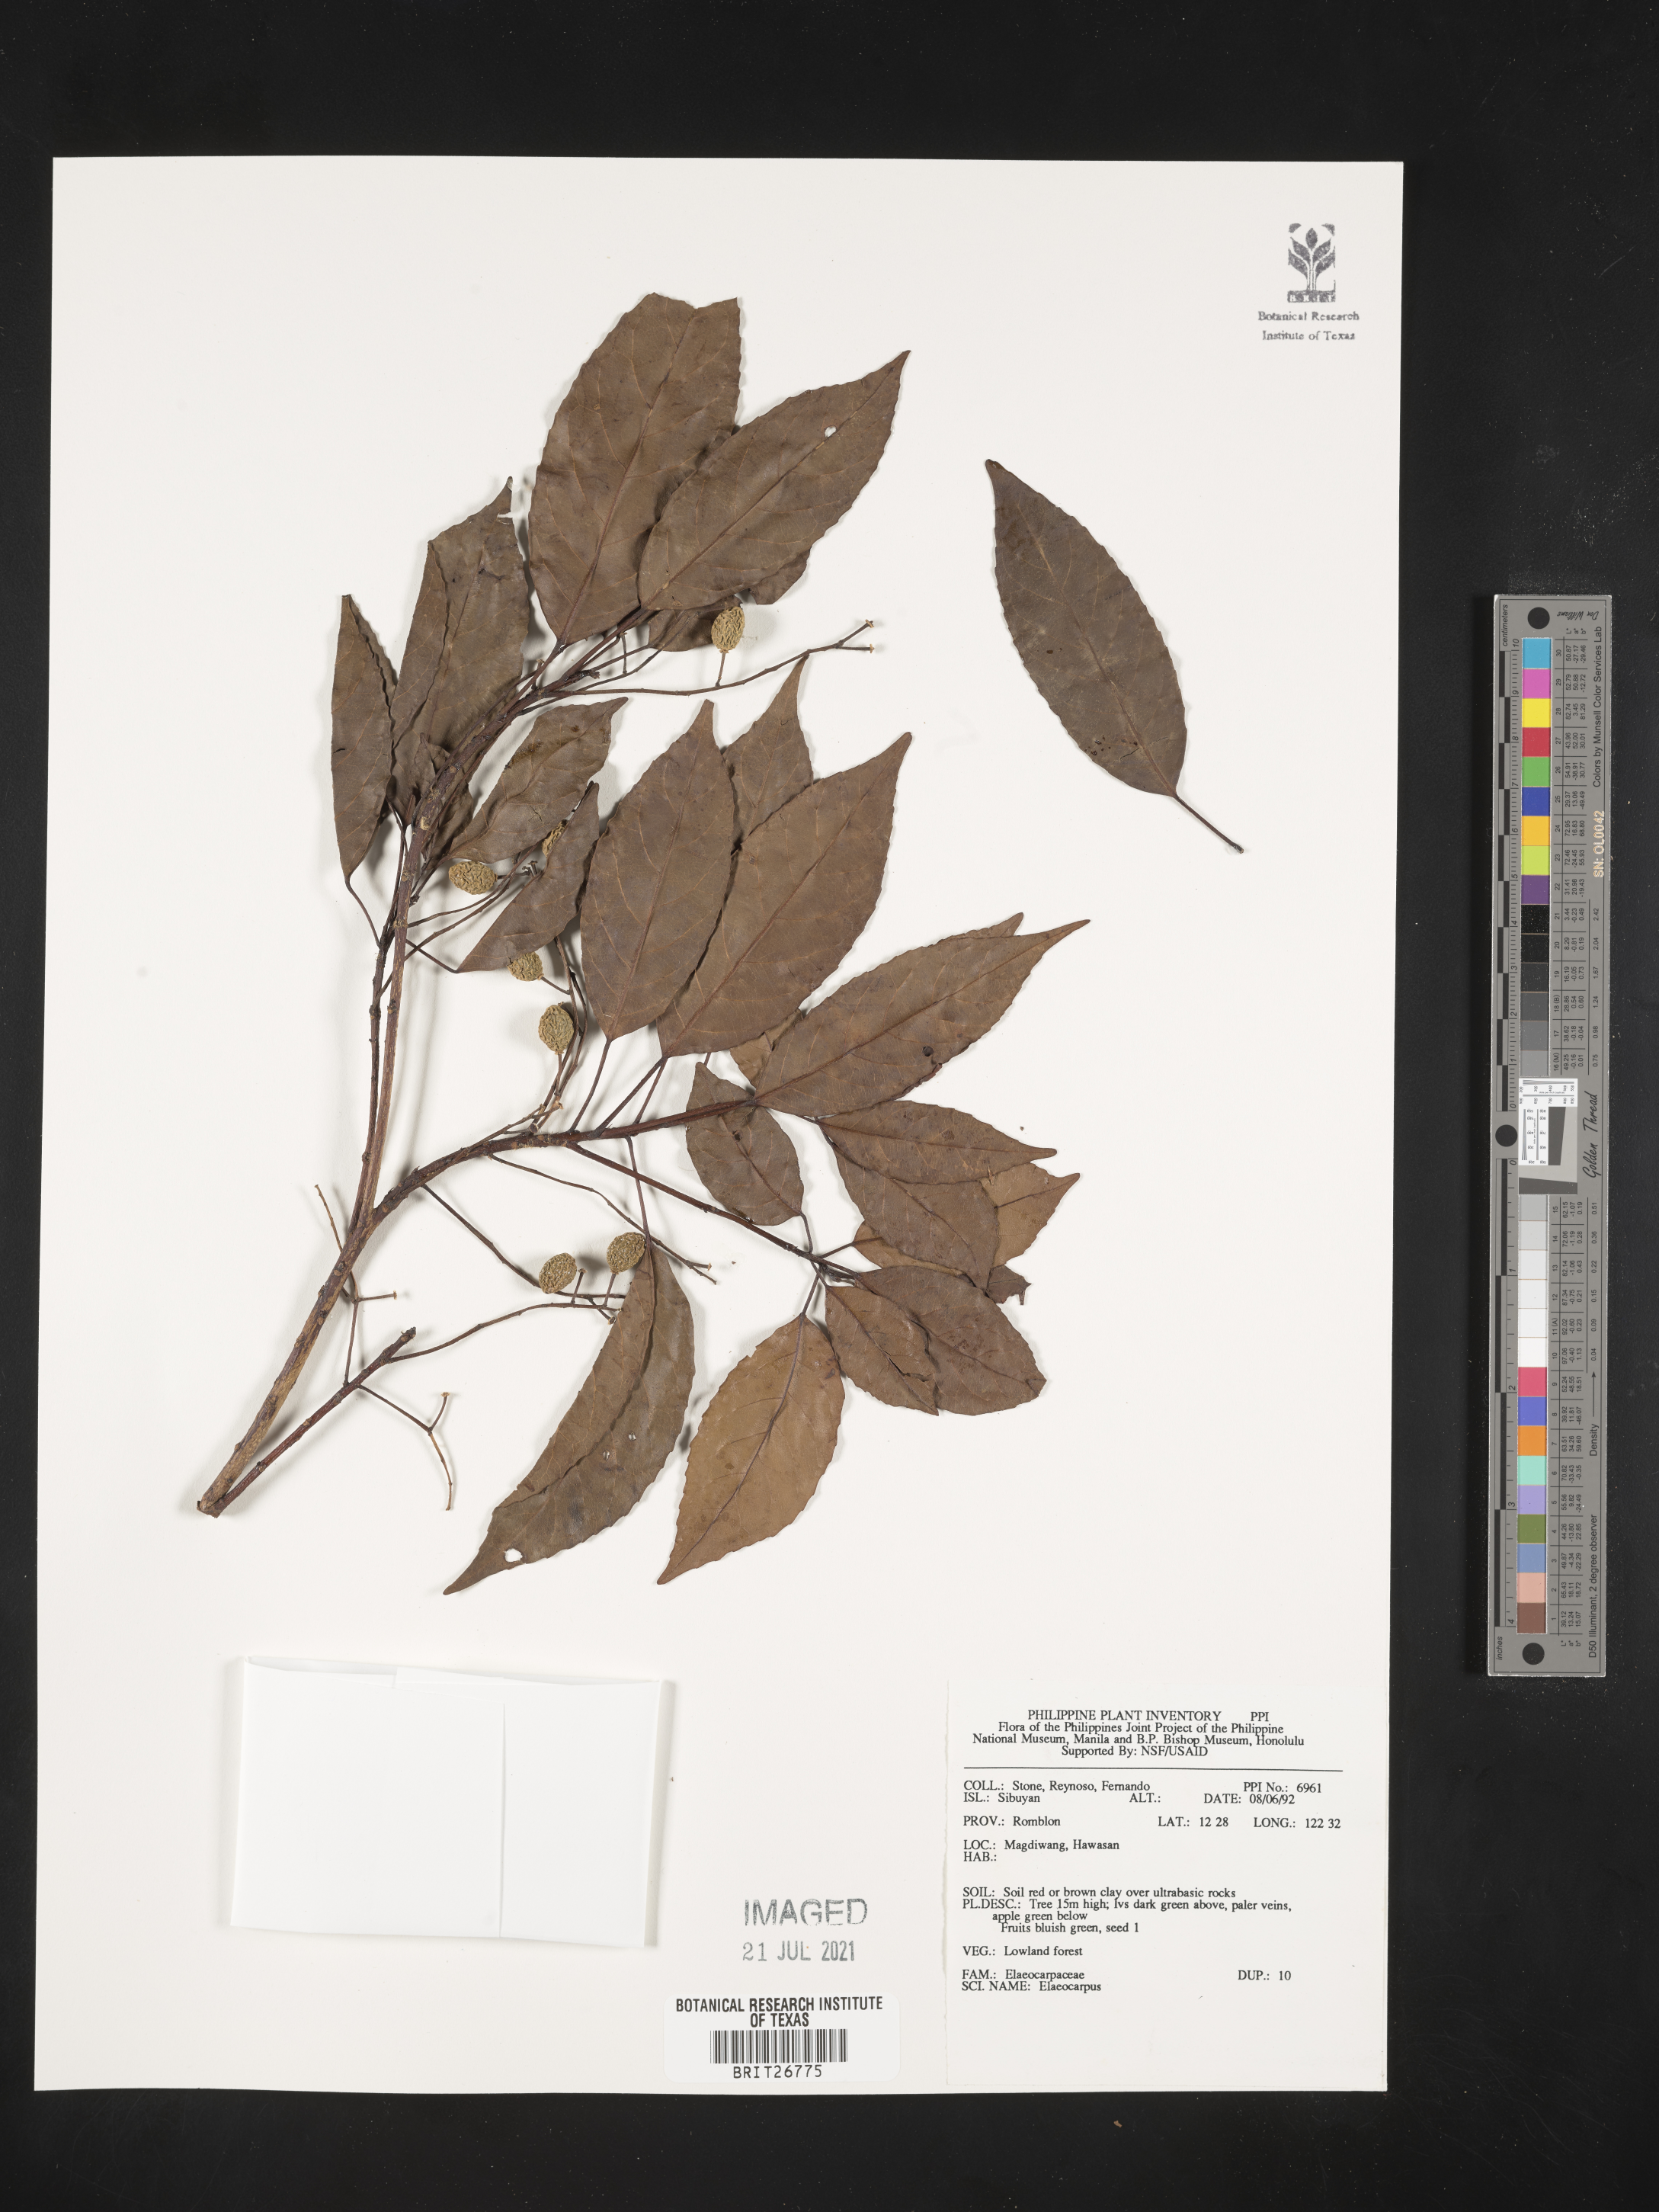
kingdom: Plantae
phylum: Tracheophyta
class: Magnoliopsida
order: Oxalidales
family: Elaeocarpaceae
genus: Elaeocarpus
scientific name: Elaeocarpus
